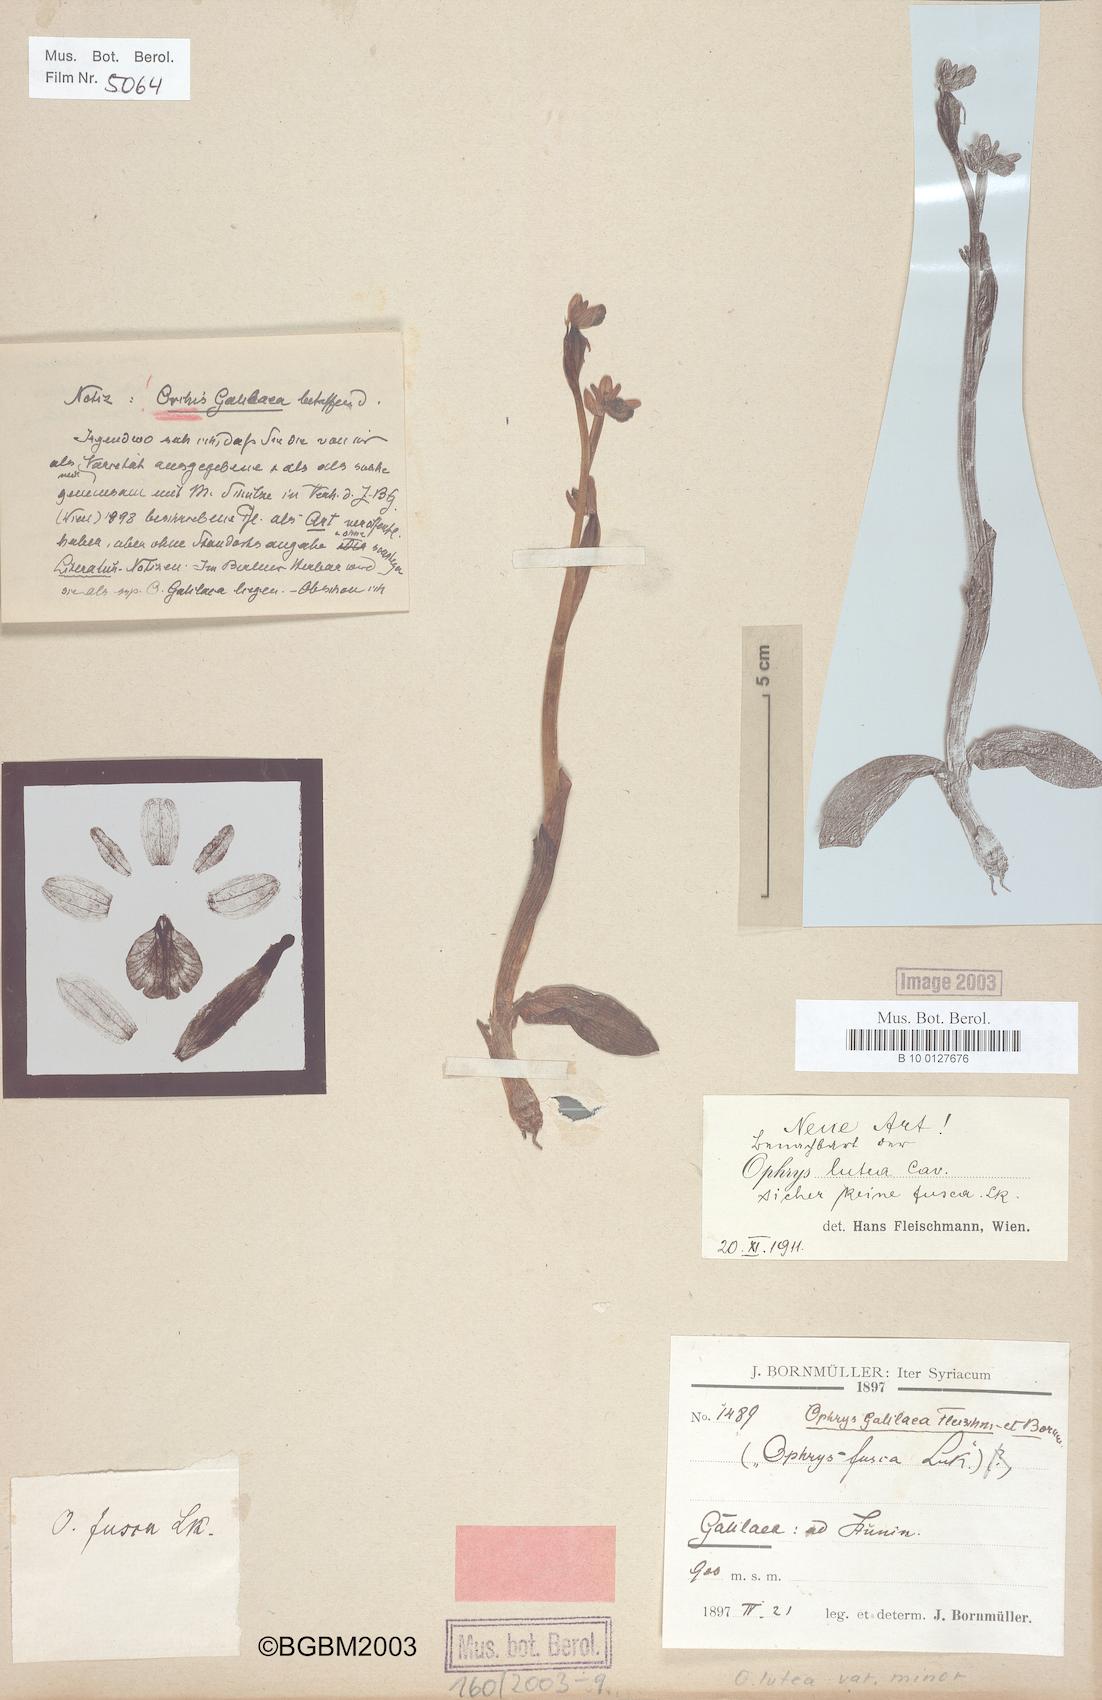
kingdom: Plantae
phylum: Tracheophyta
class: Liliopsida
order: Asparagales
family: Orchidaceae
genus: Ophrys
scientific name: Ophrys lutea
